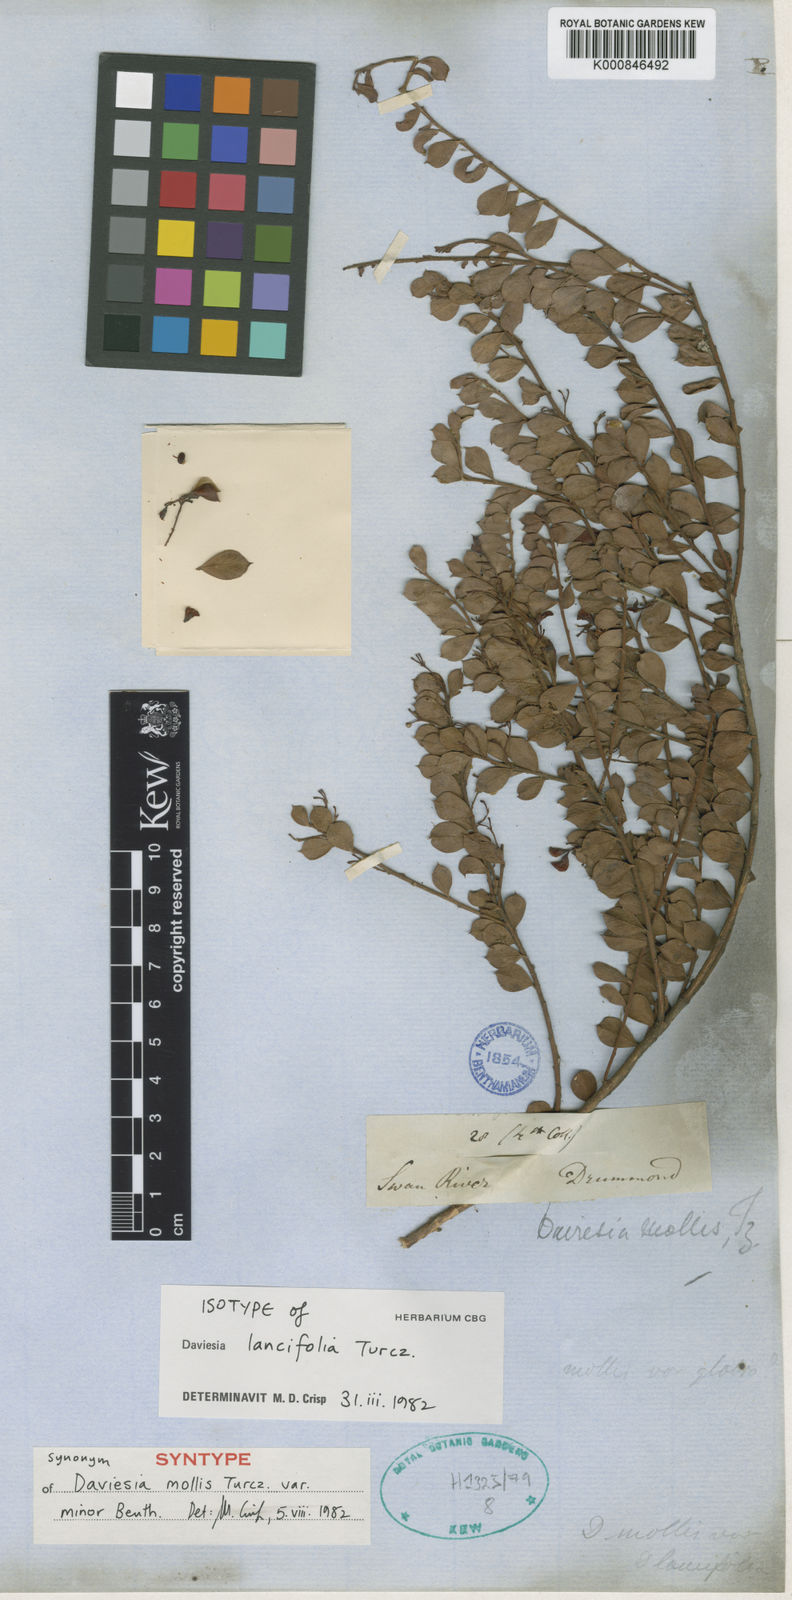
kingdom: Plantae
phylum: Tracheophyta
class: Magnoliopsida
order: Fabales
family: Fabaceae
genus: Daviesia
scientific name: Daviesia lancifolia
